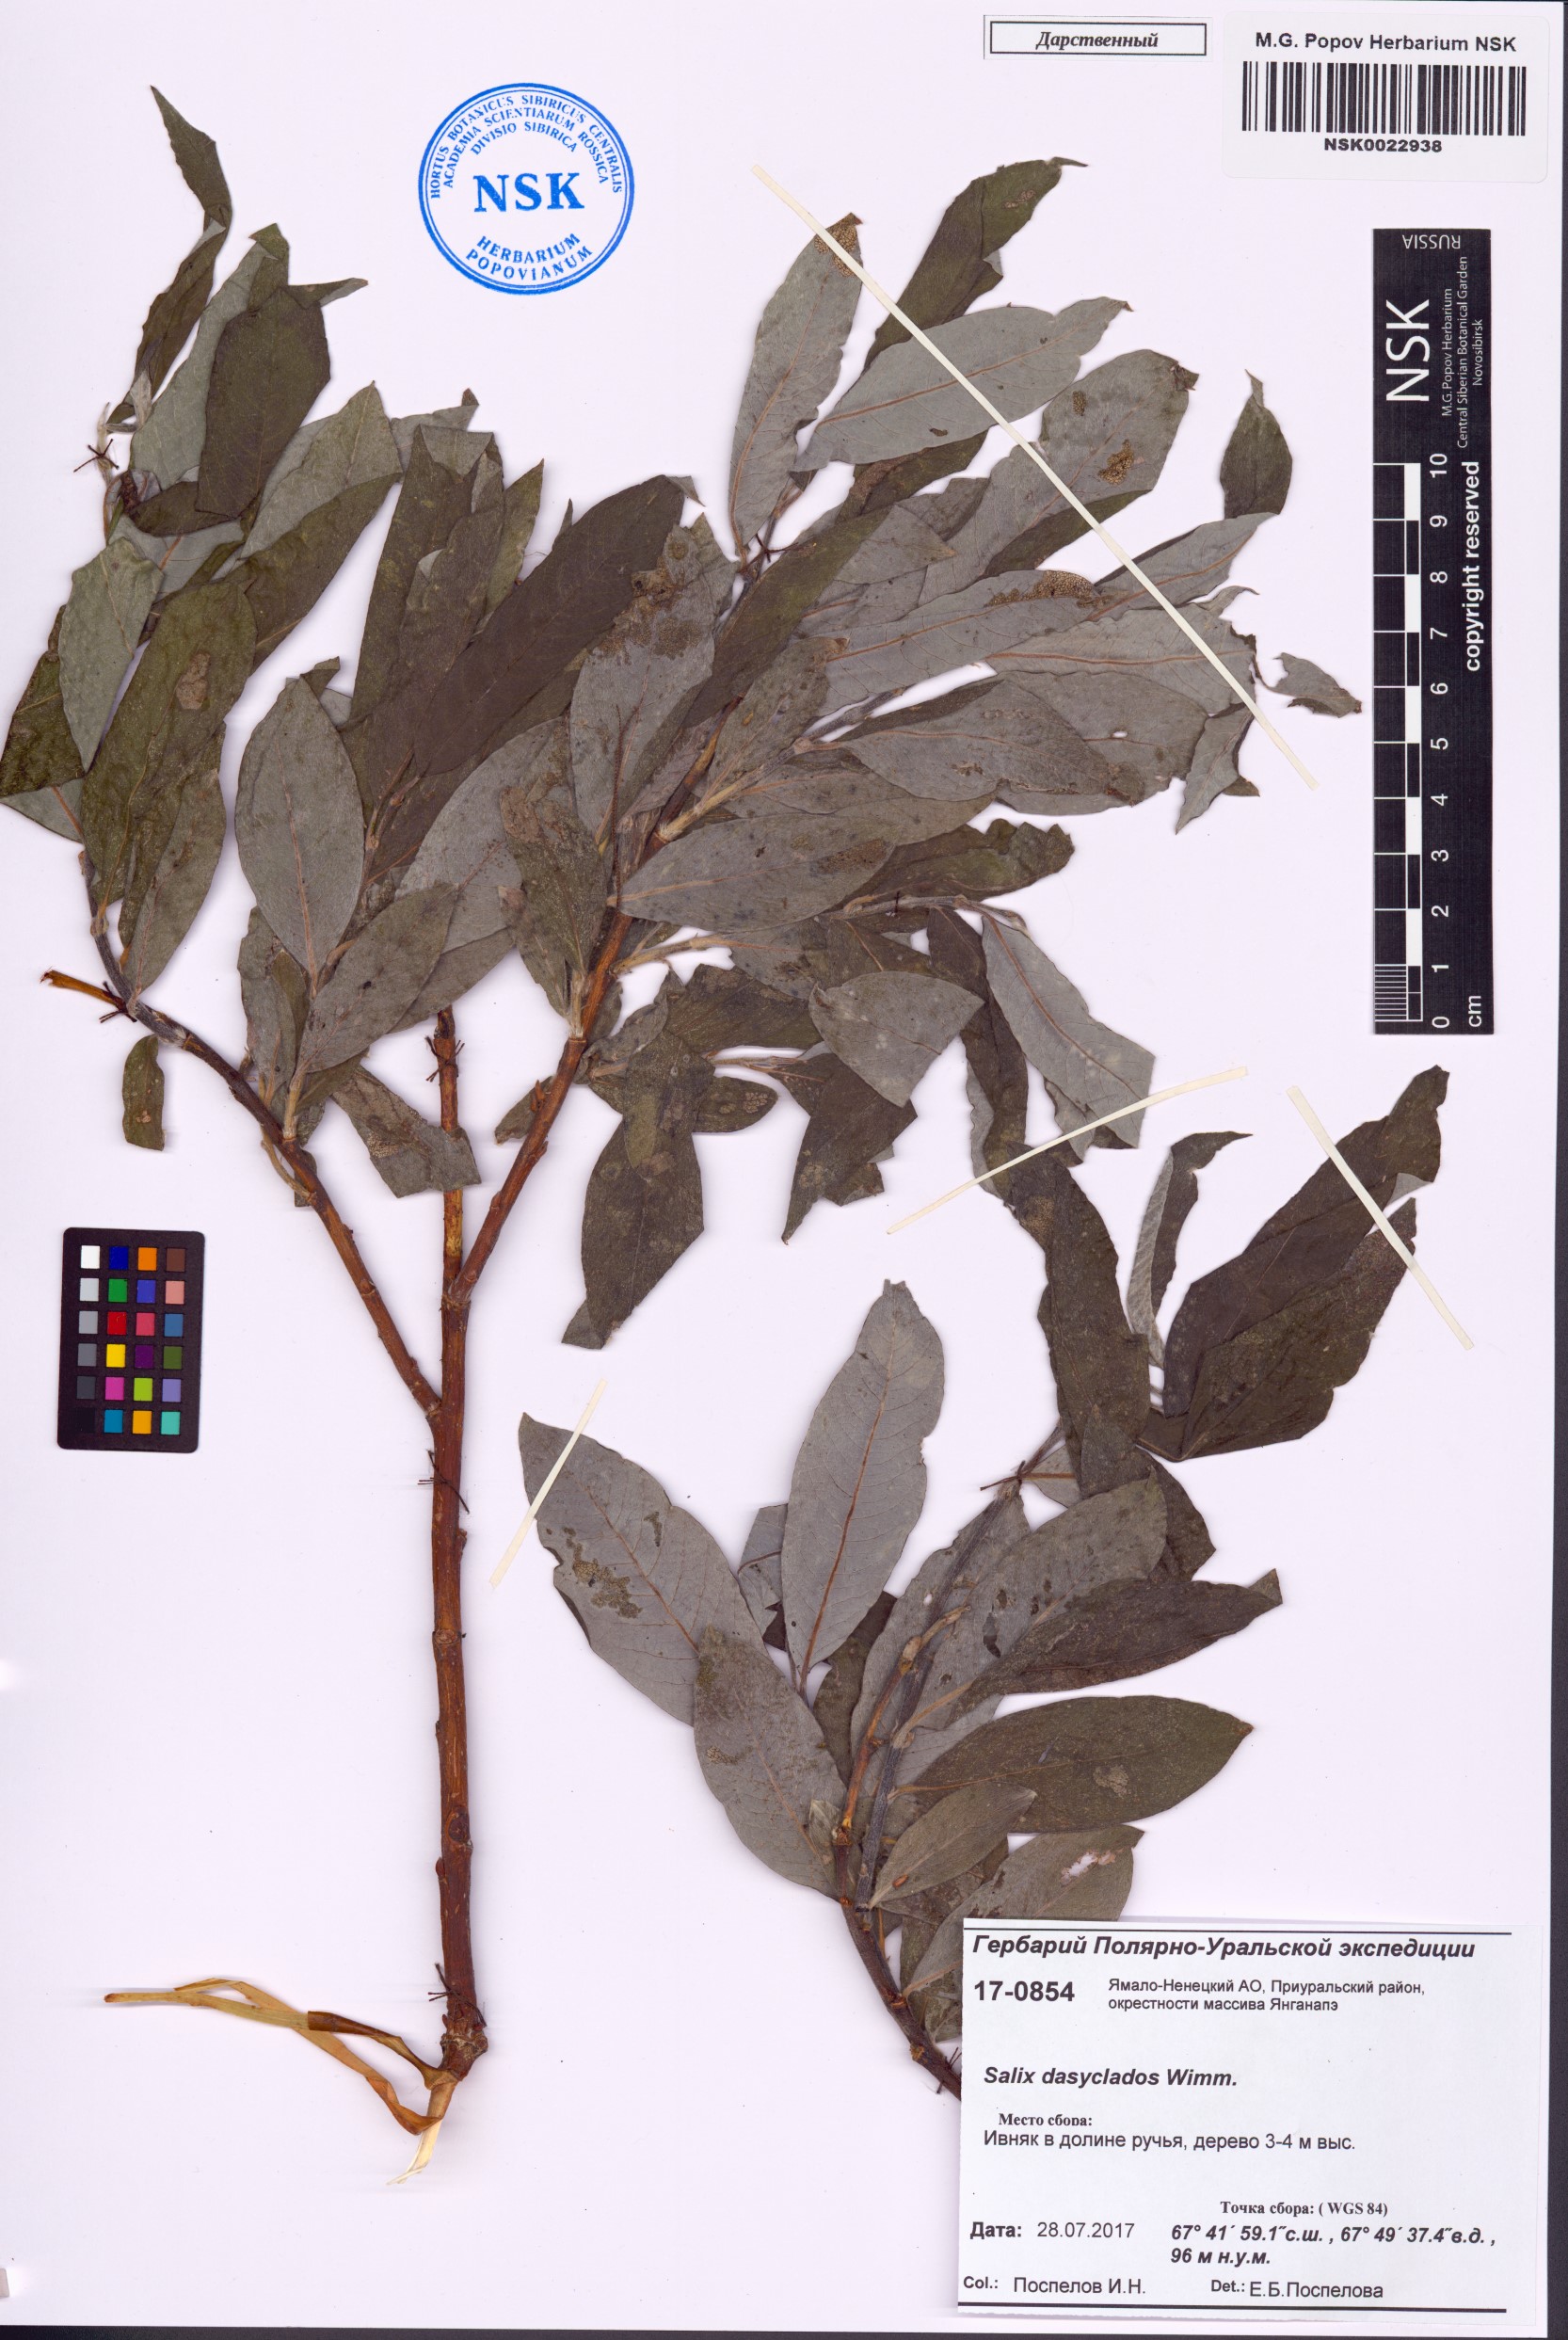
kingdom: Plantae
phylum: Tracheophyta
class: Magnoliopsida
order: Malpighiales
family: Salicaceae
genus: Salix
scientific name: Salix gmelinii
